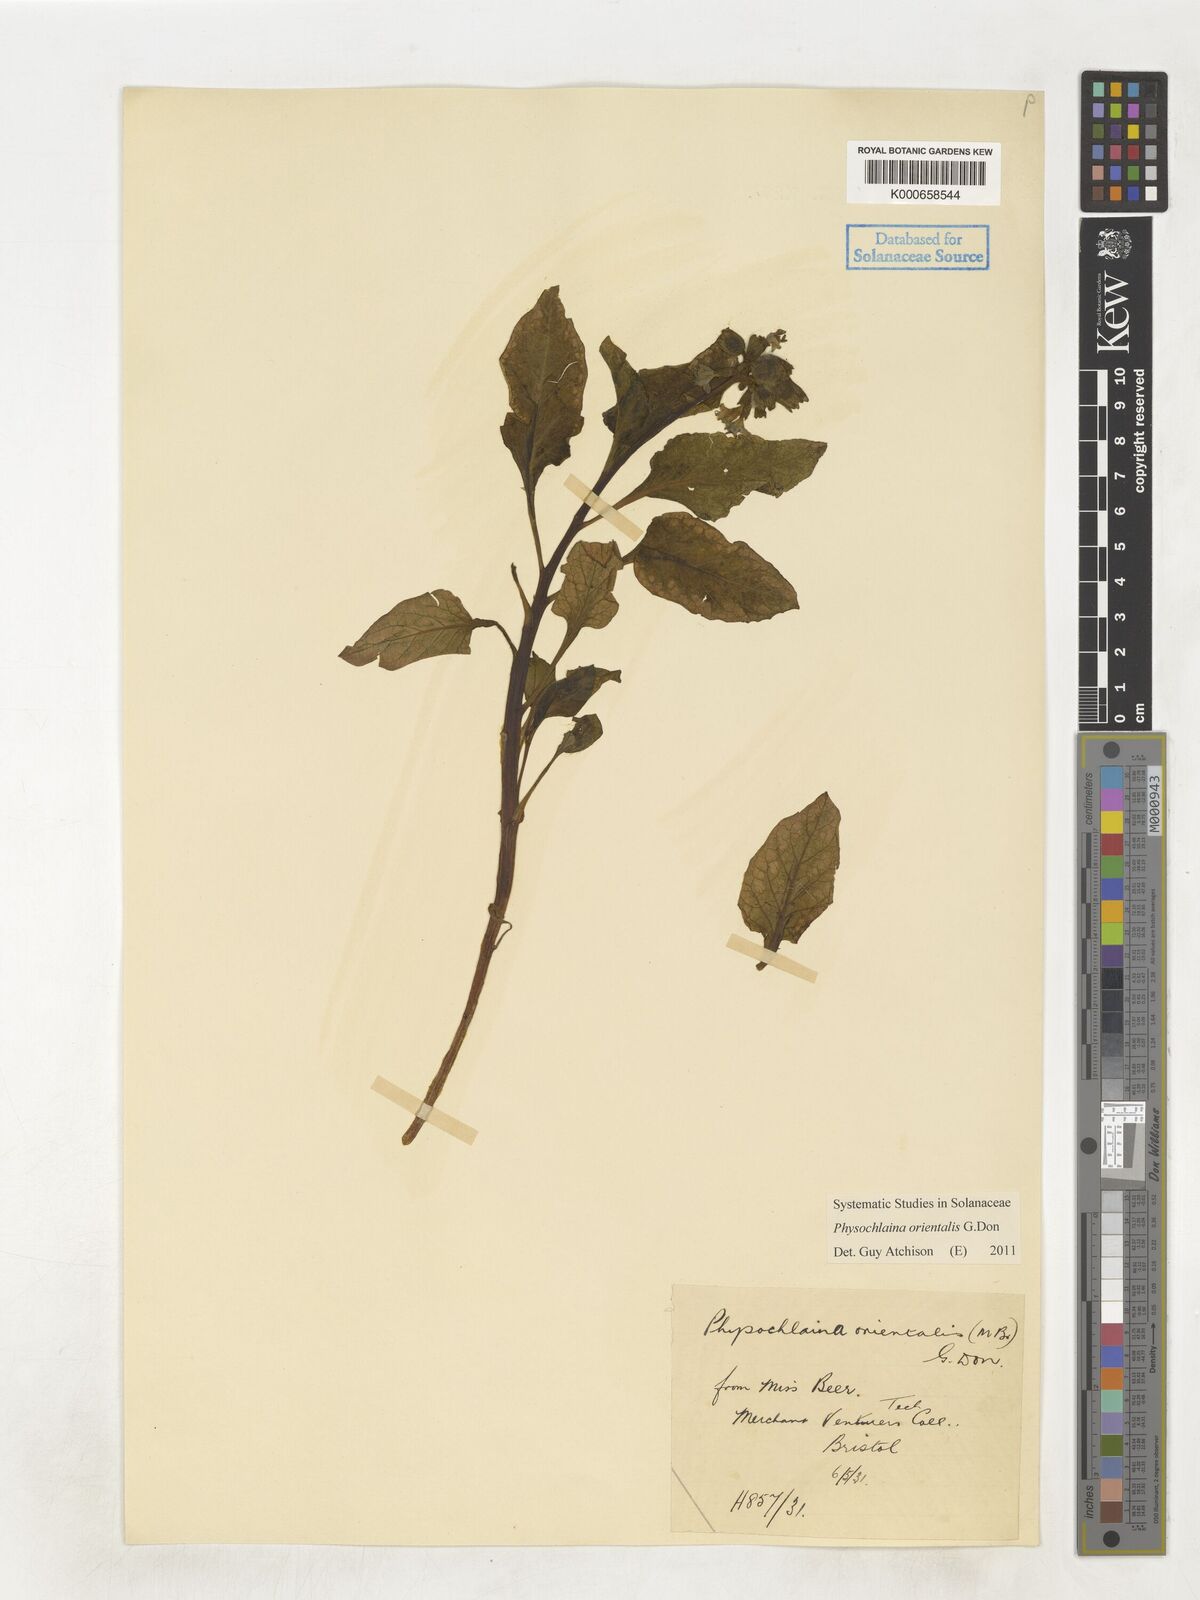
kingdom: Plantae
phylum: Tracheophyta
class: Magnoliopsida
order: Solanales
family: Solanaceae
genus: Physochlaina
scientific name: Physochlaina orientalis
